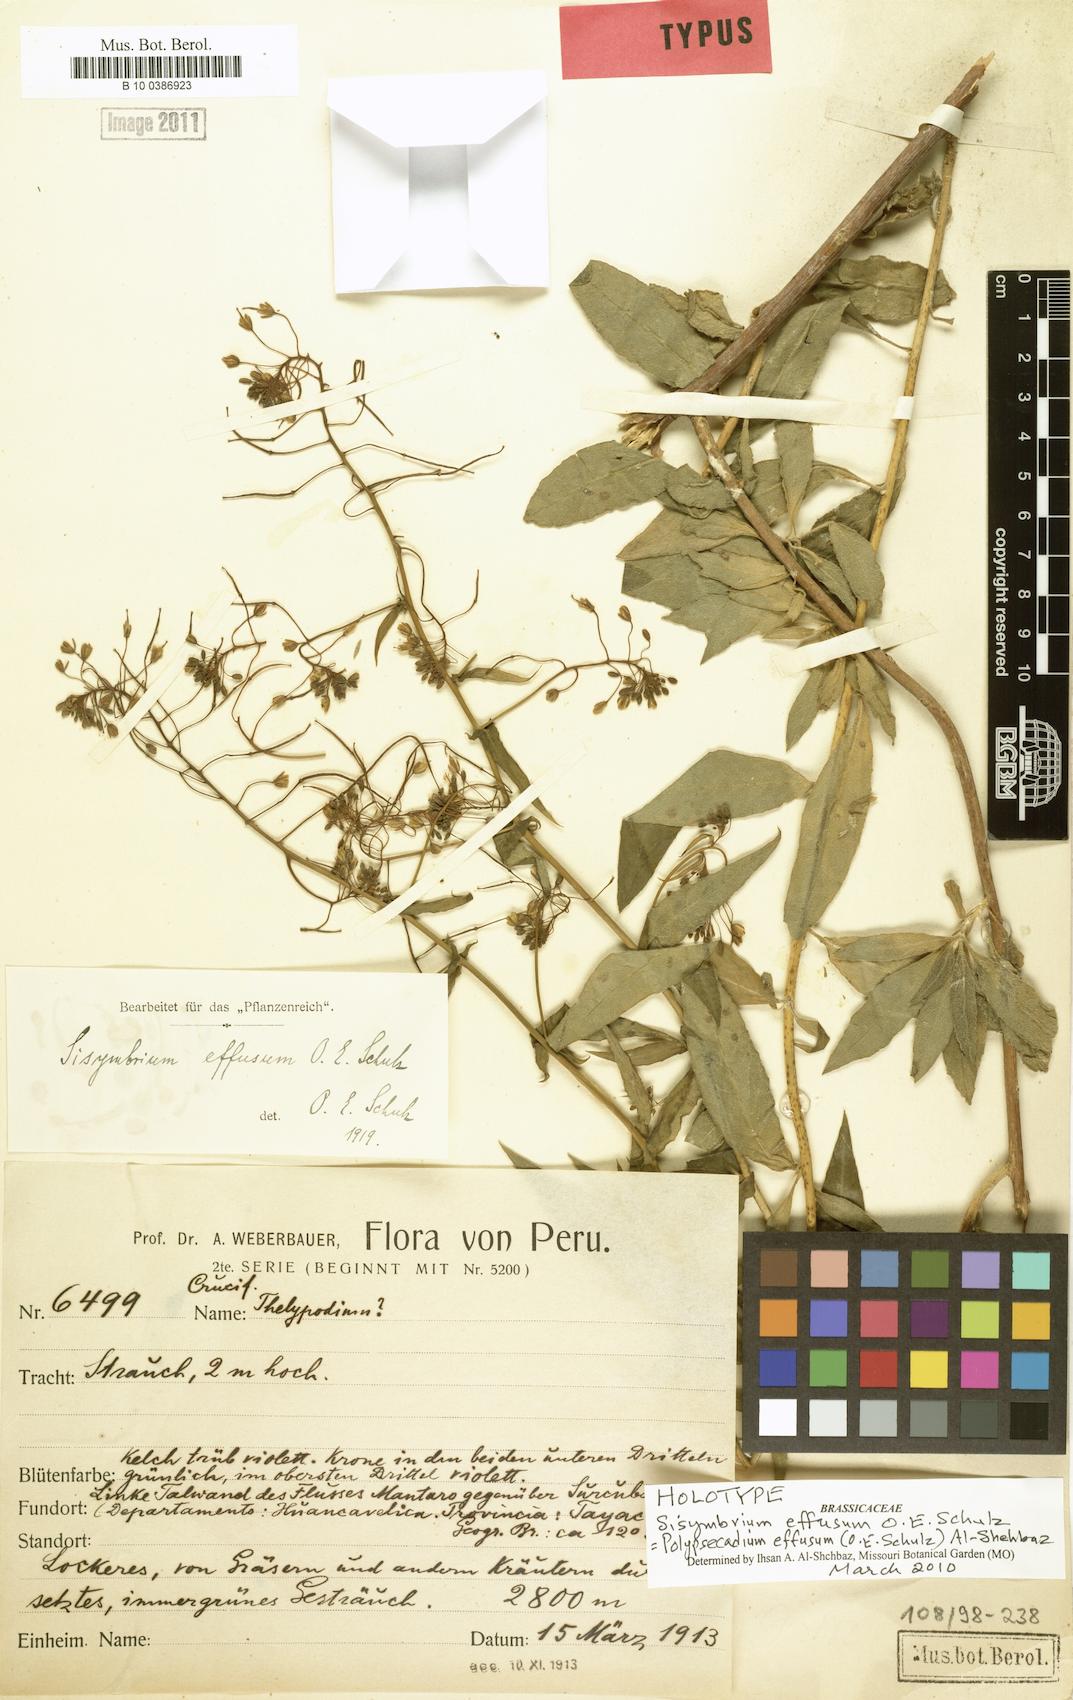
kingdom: Plantae
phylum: Tracheophyta
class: Magnoliopsida
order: Brassicales
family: Brassicaceae
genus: Polypsecadium
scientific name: Polypsecadium effusum
